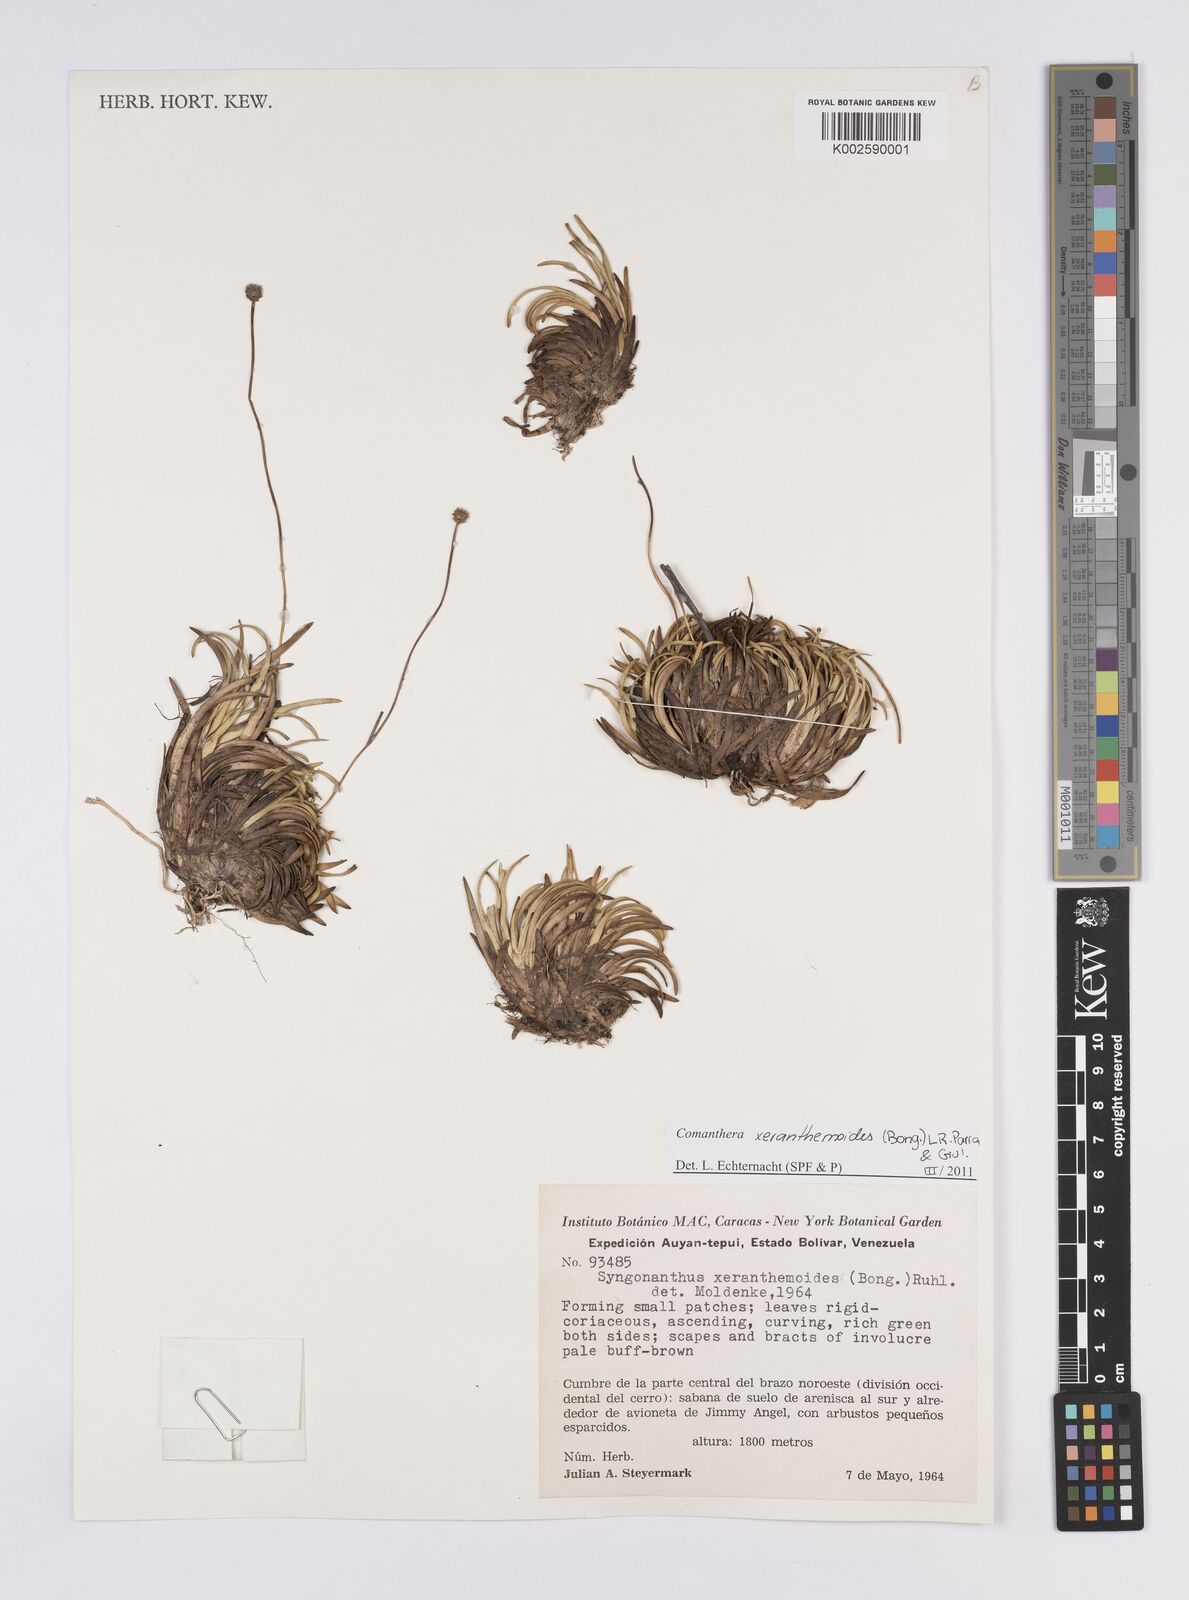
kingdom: Plantae
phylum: Tracheophyta
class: Liliopsida
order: Poales
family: Eriocaulaceae
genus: Comanthera
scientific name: Comanthera xeranthemoides
